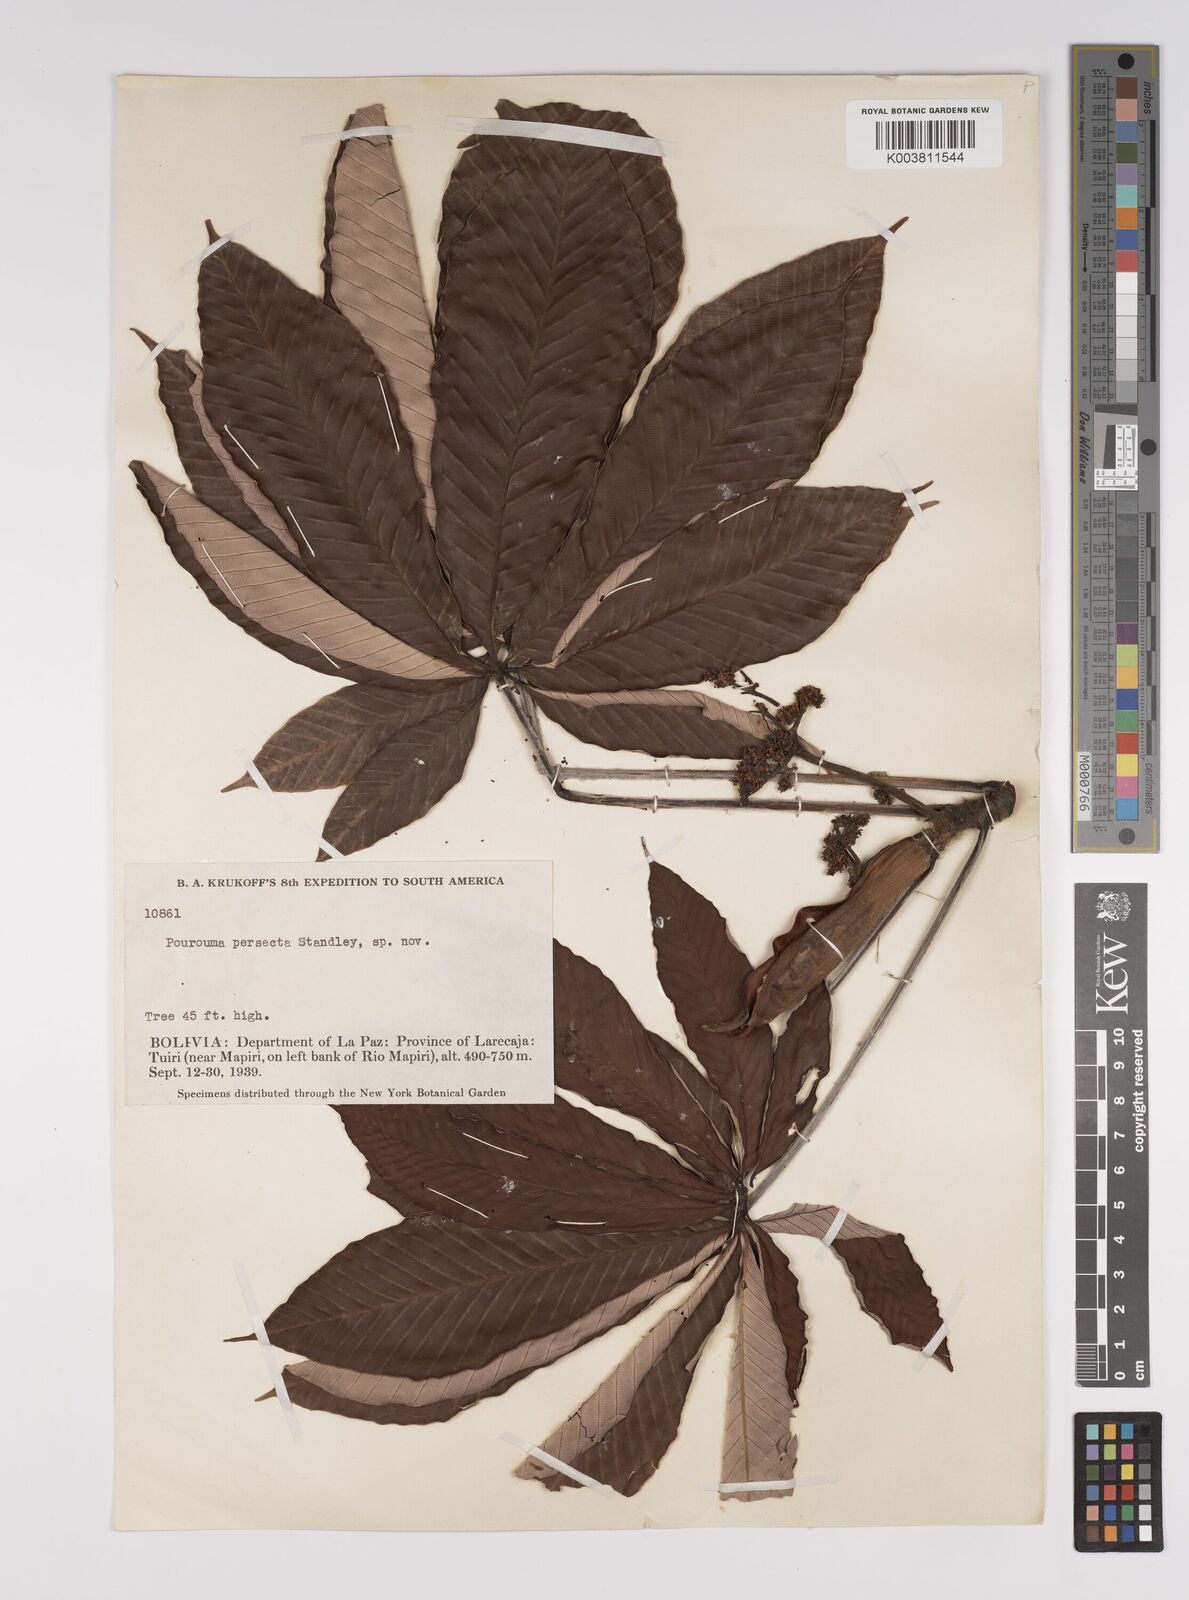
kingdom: Plantae
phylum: Tracheophyta
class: Magnoliopsida
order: Rosales
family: Urticaceae
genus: Pourouma
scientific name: Pourouma
